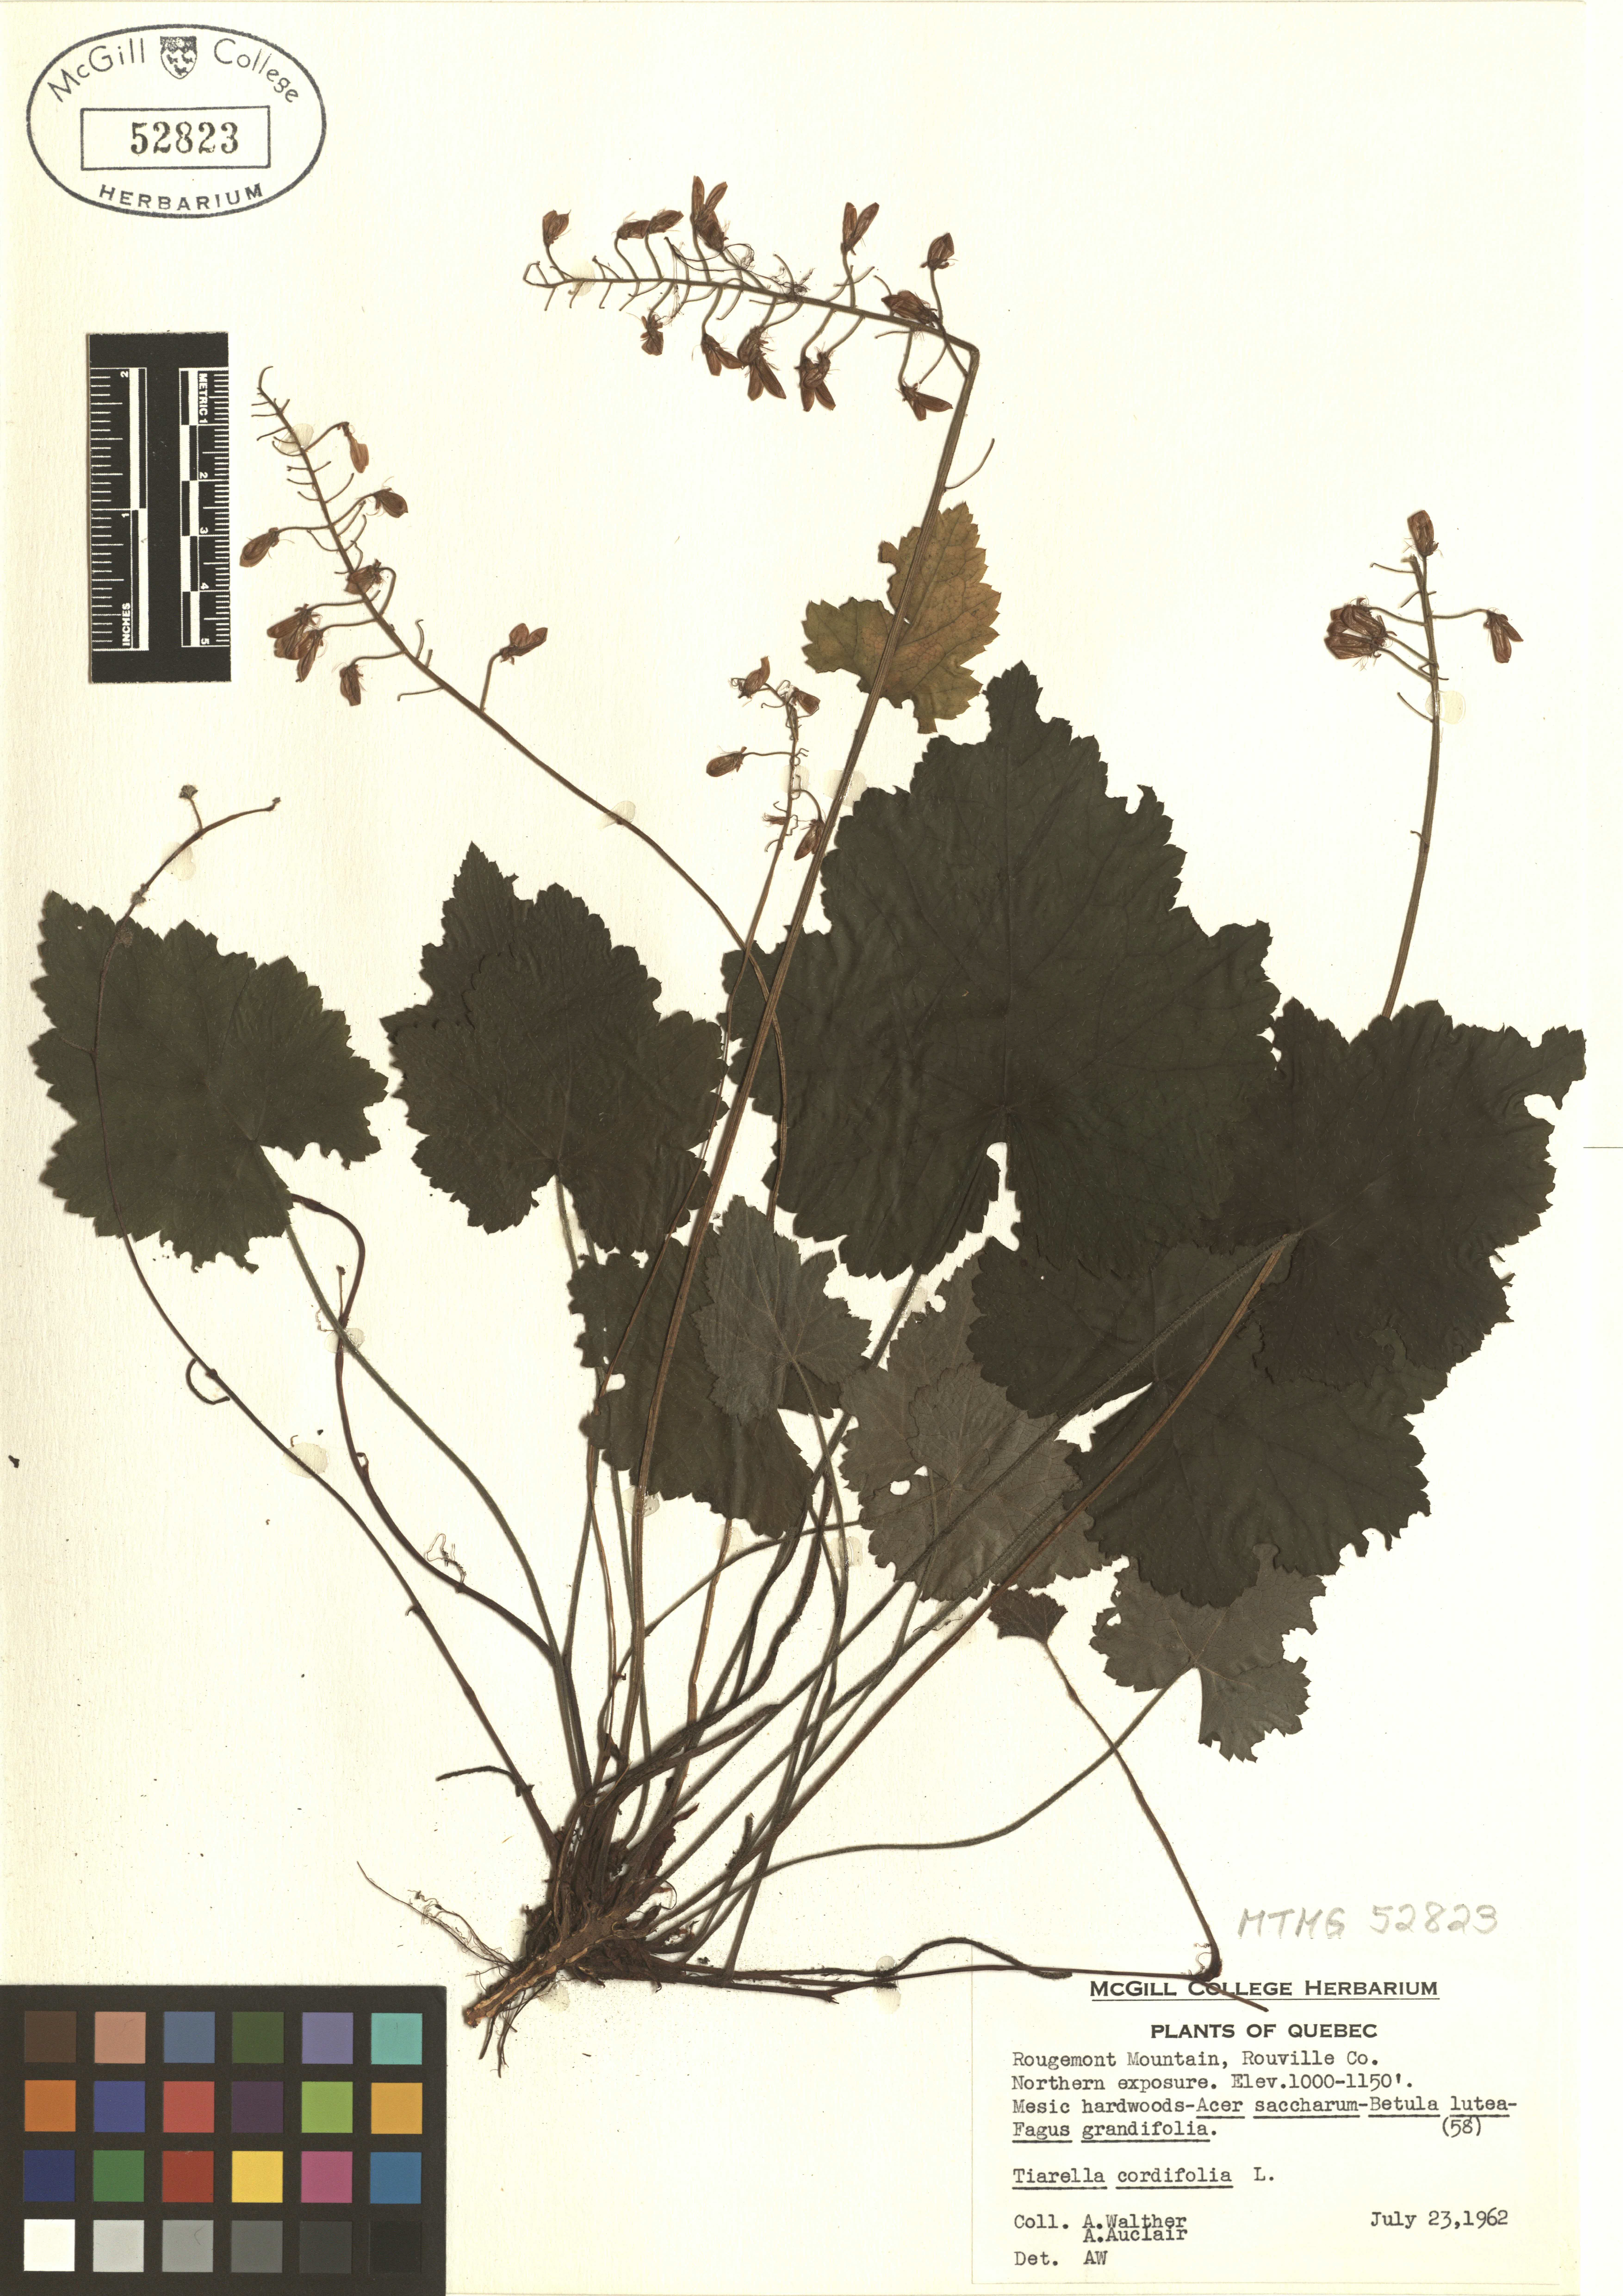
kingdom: Plantae
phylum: Tracheophyta
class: Magnoliopsida
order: Saxifragales
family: Saxifragaceae
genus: Tiarella
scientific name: Tiarella cordifolia
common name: Foamflower
